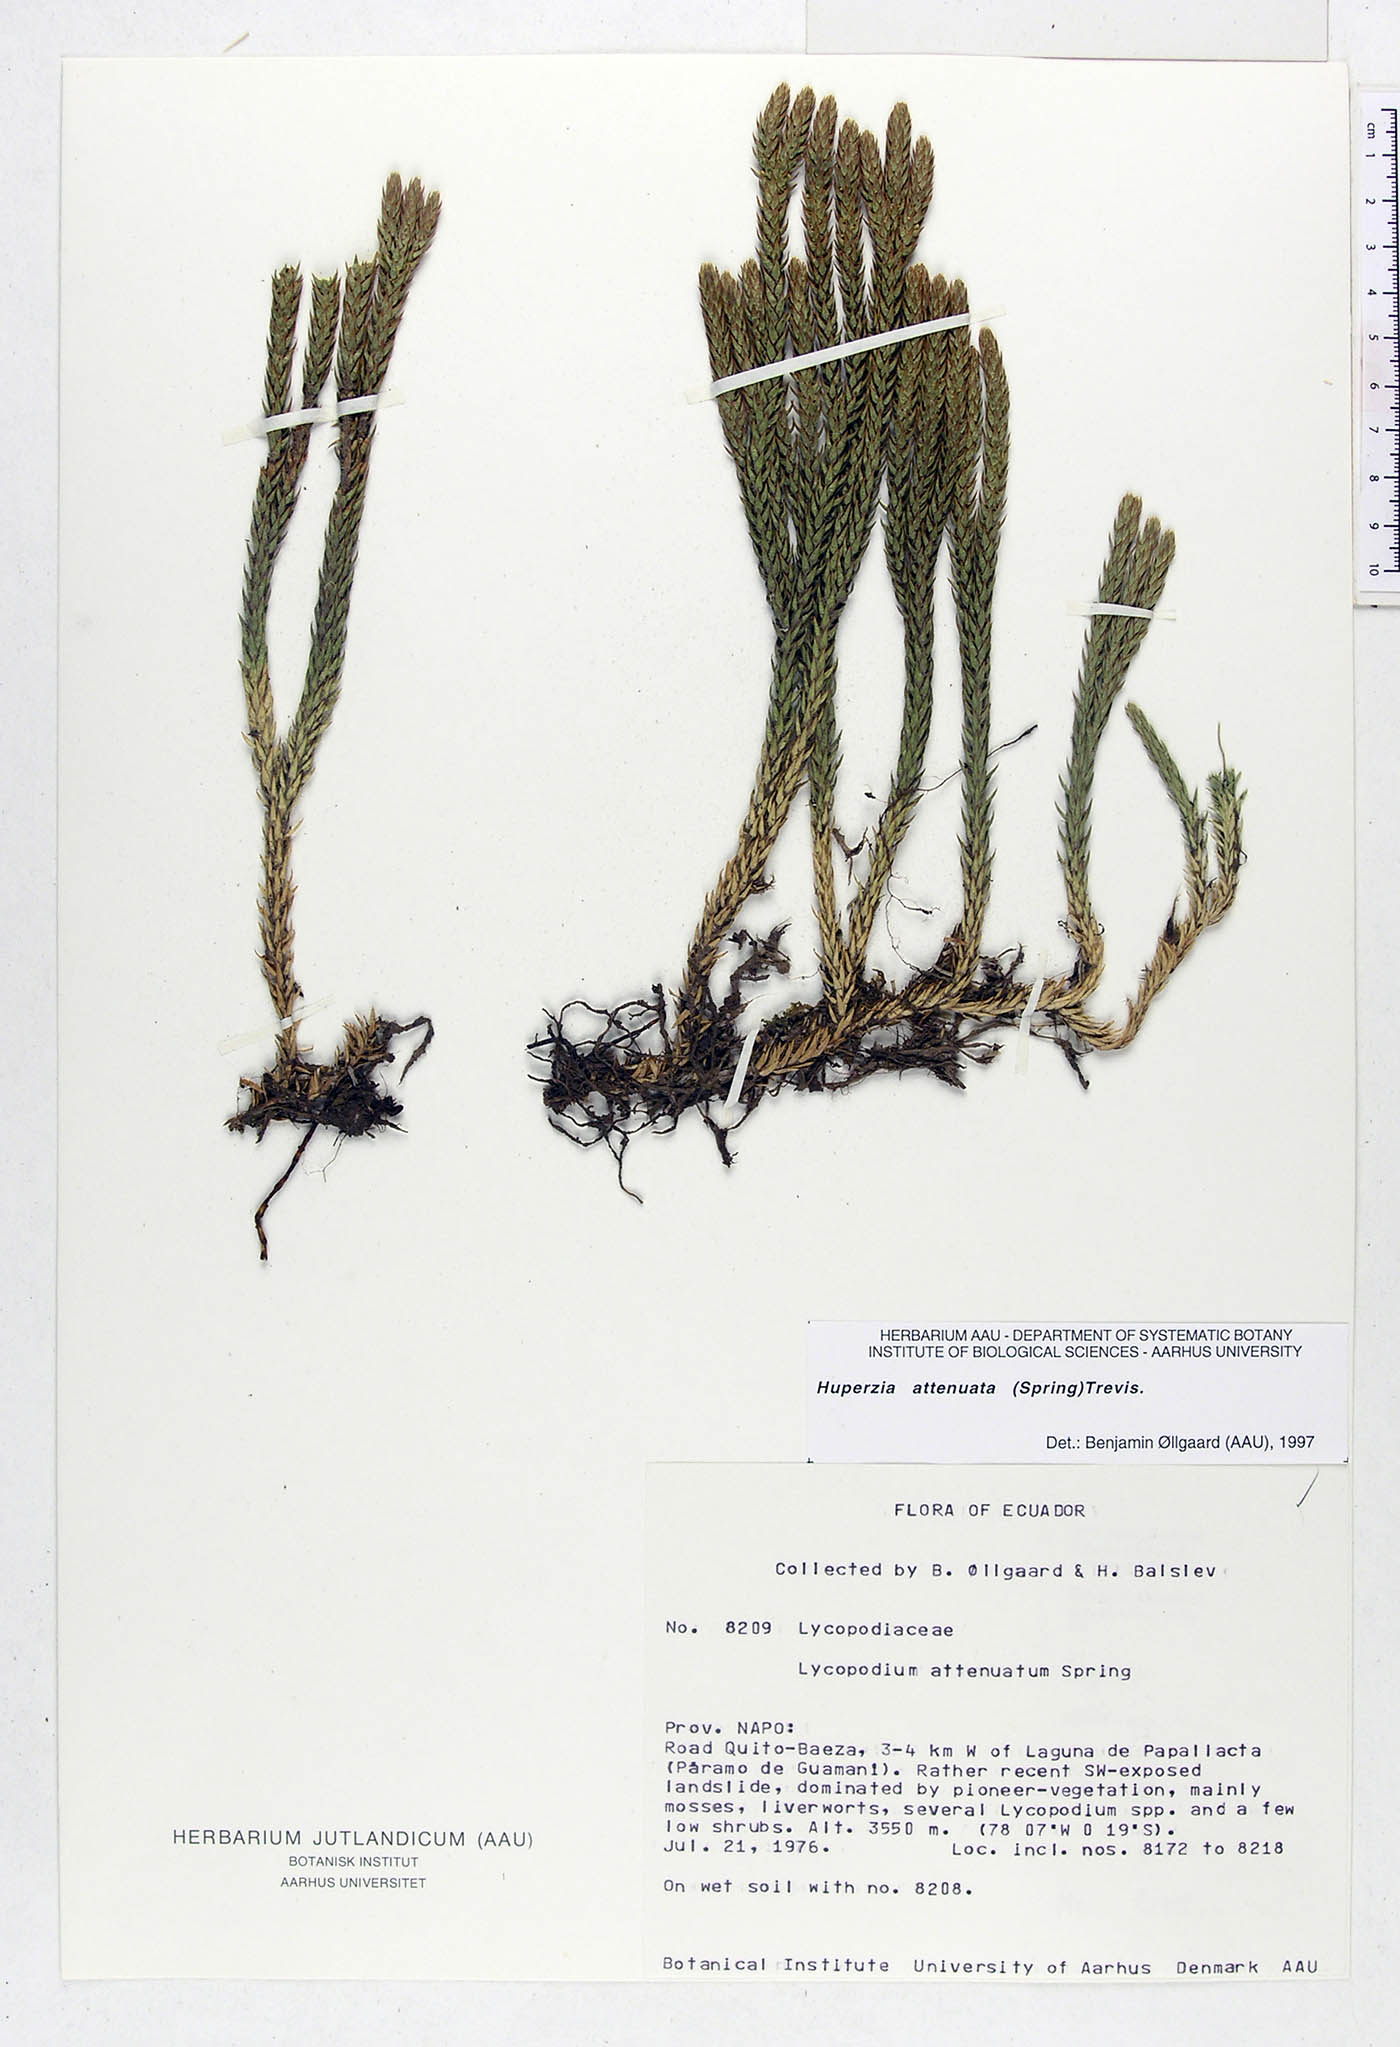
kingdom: Plantae
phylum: Tracheophyta
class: Lycopodiopsida
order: Lycopodiales
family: Lycopodiaceae
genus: Phlegmariurus
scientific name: Phlegmariurus attenuatus
